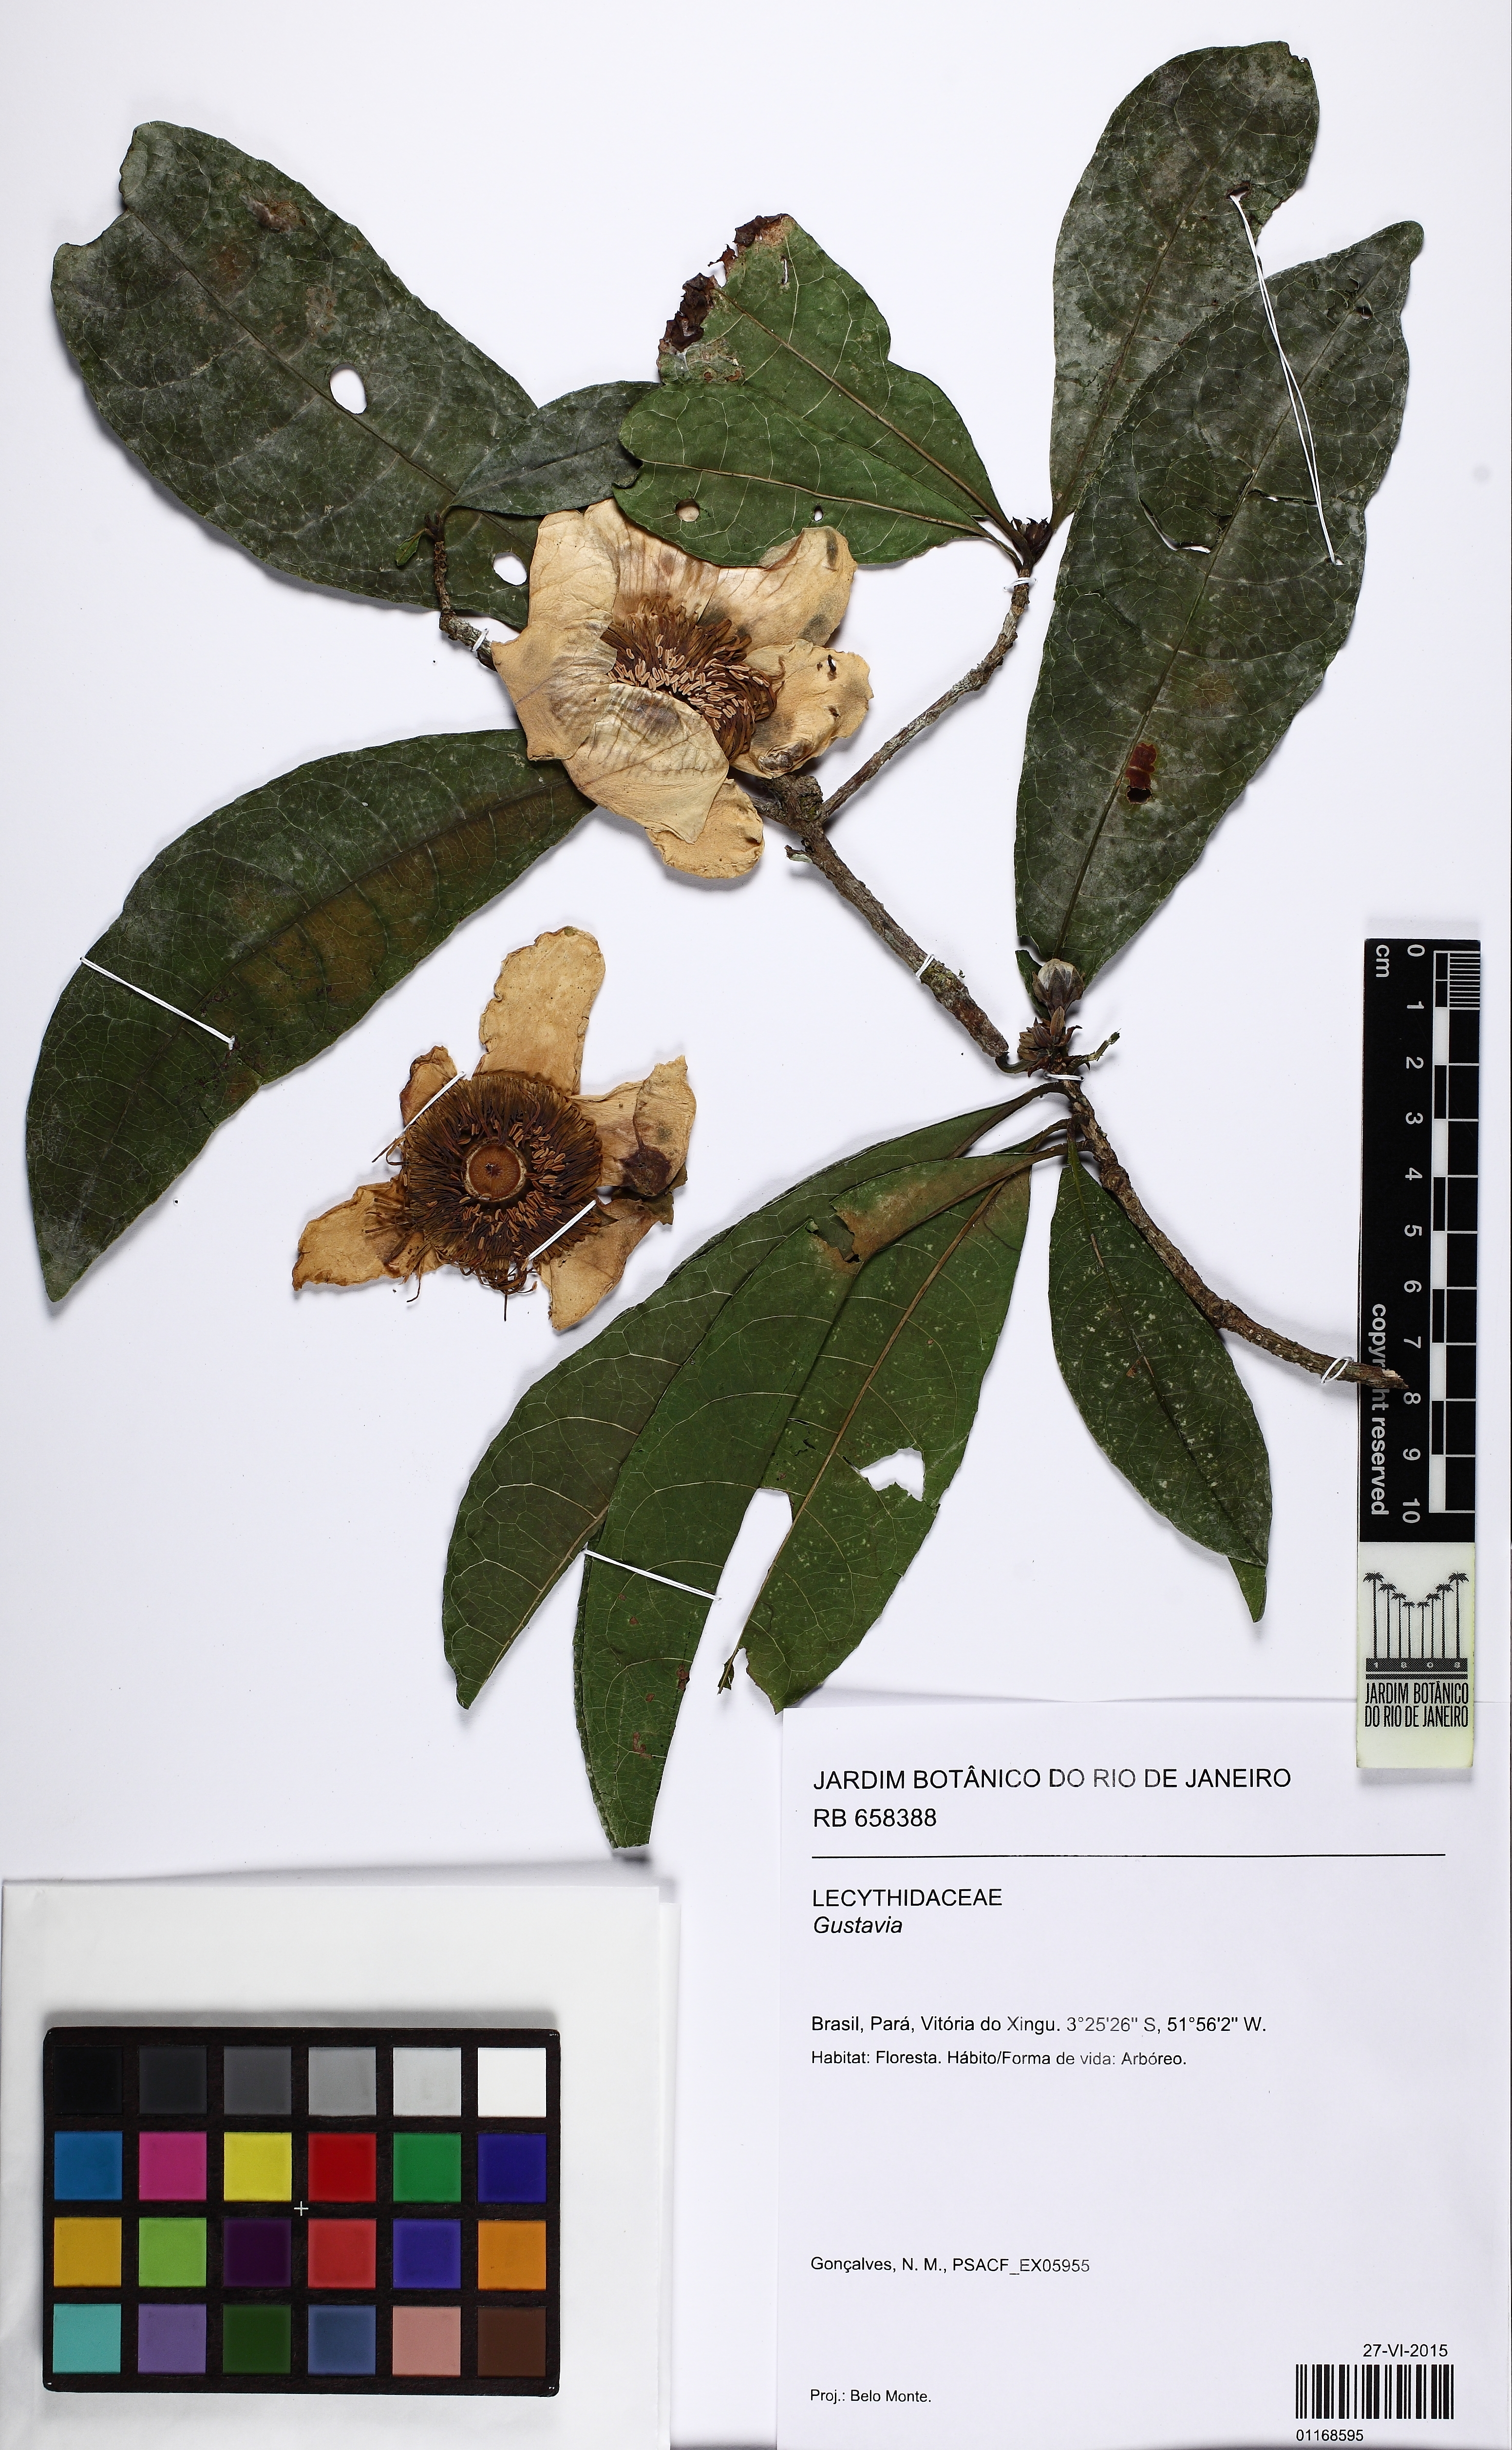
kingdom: Plantae
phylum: Tracheophyta
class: Magnoliopsida
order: Ericales
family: Lecythidaceae
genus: Gustavia
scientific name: Gustavia
